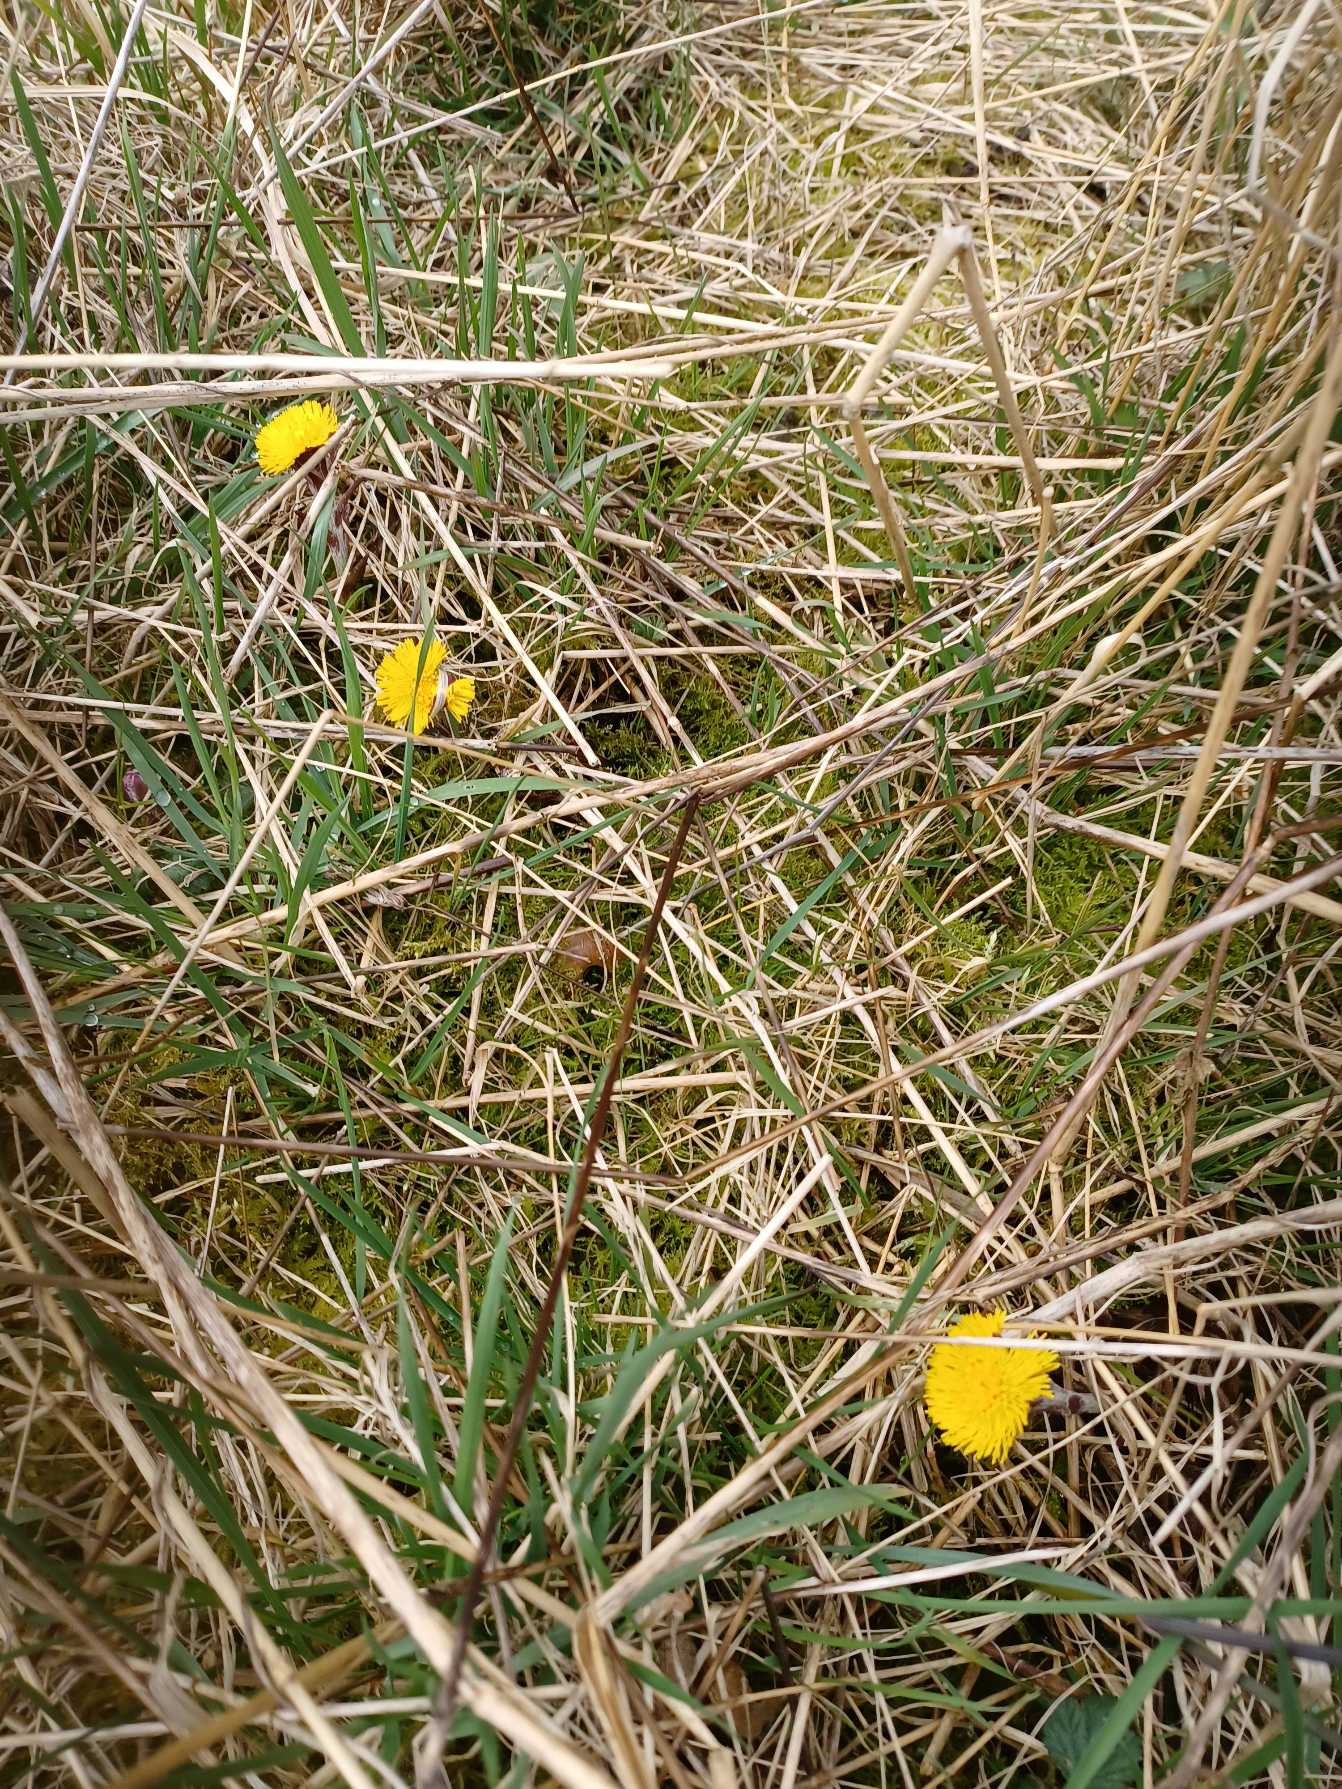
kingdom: Plantae
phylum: Tracheophyta
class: Magnoliopsida
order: Asterales
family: Asteraceae
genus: Tussilago
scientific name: Tussilago farfara
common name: Følfod
